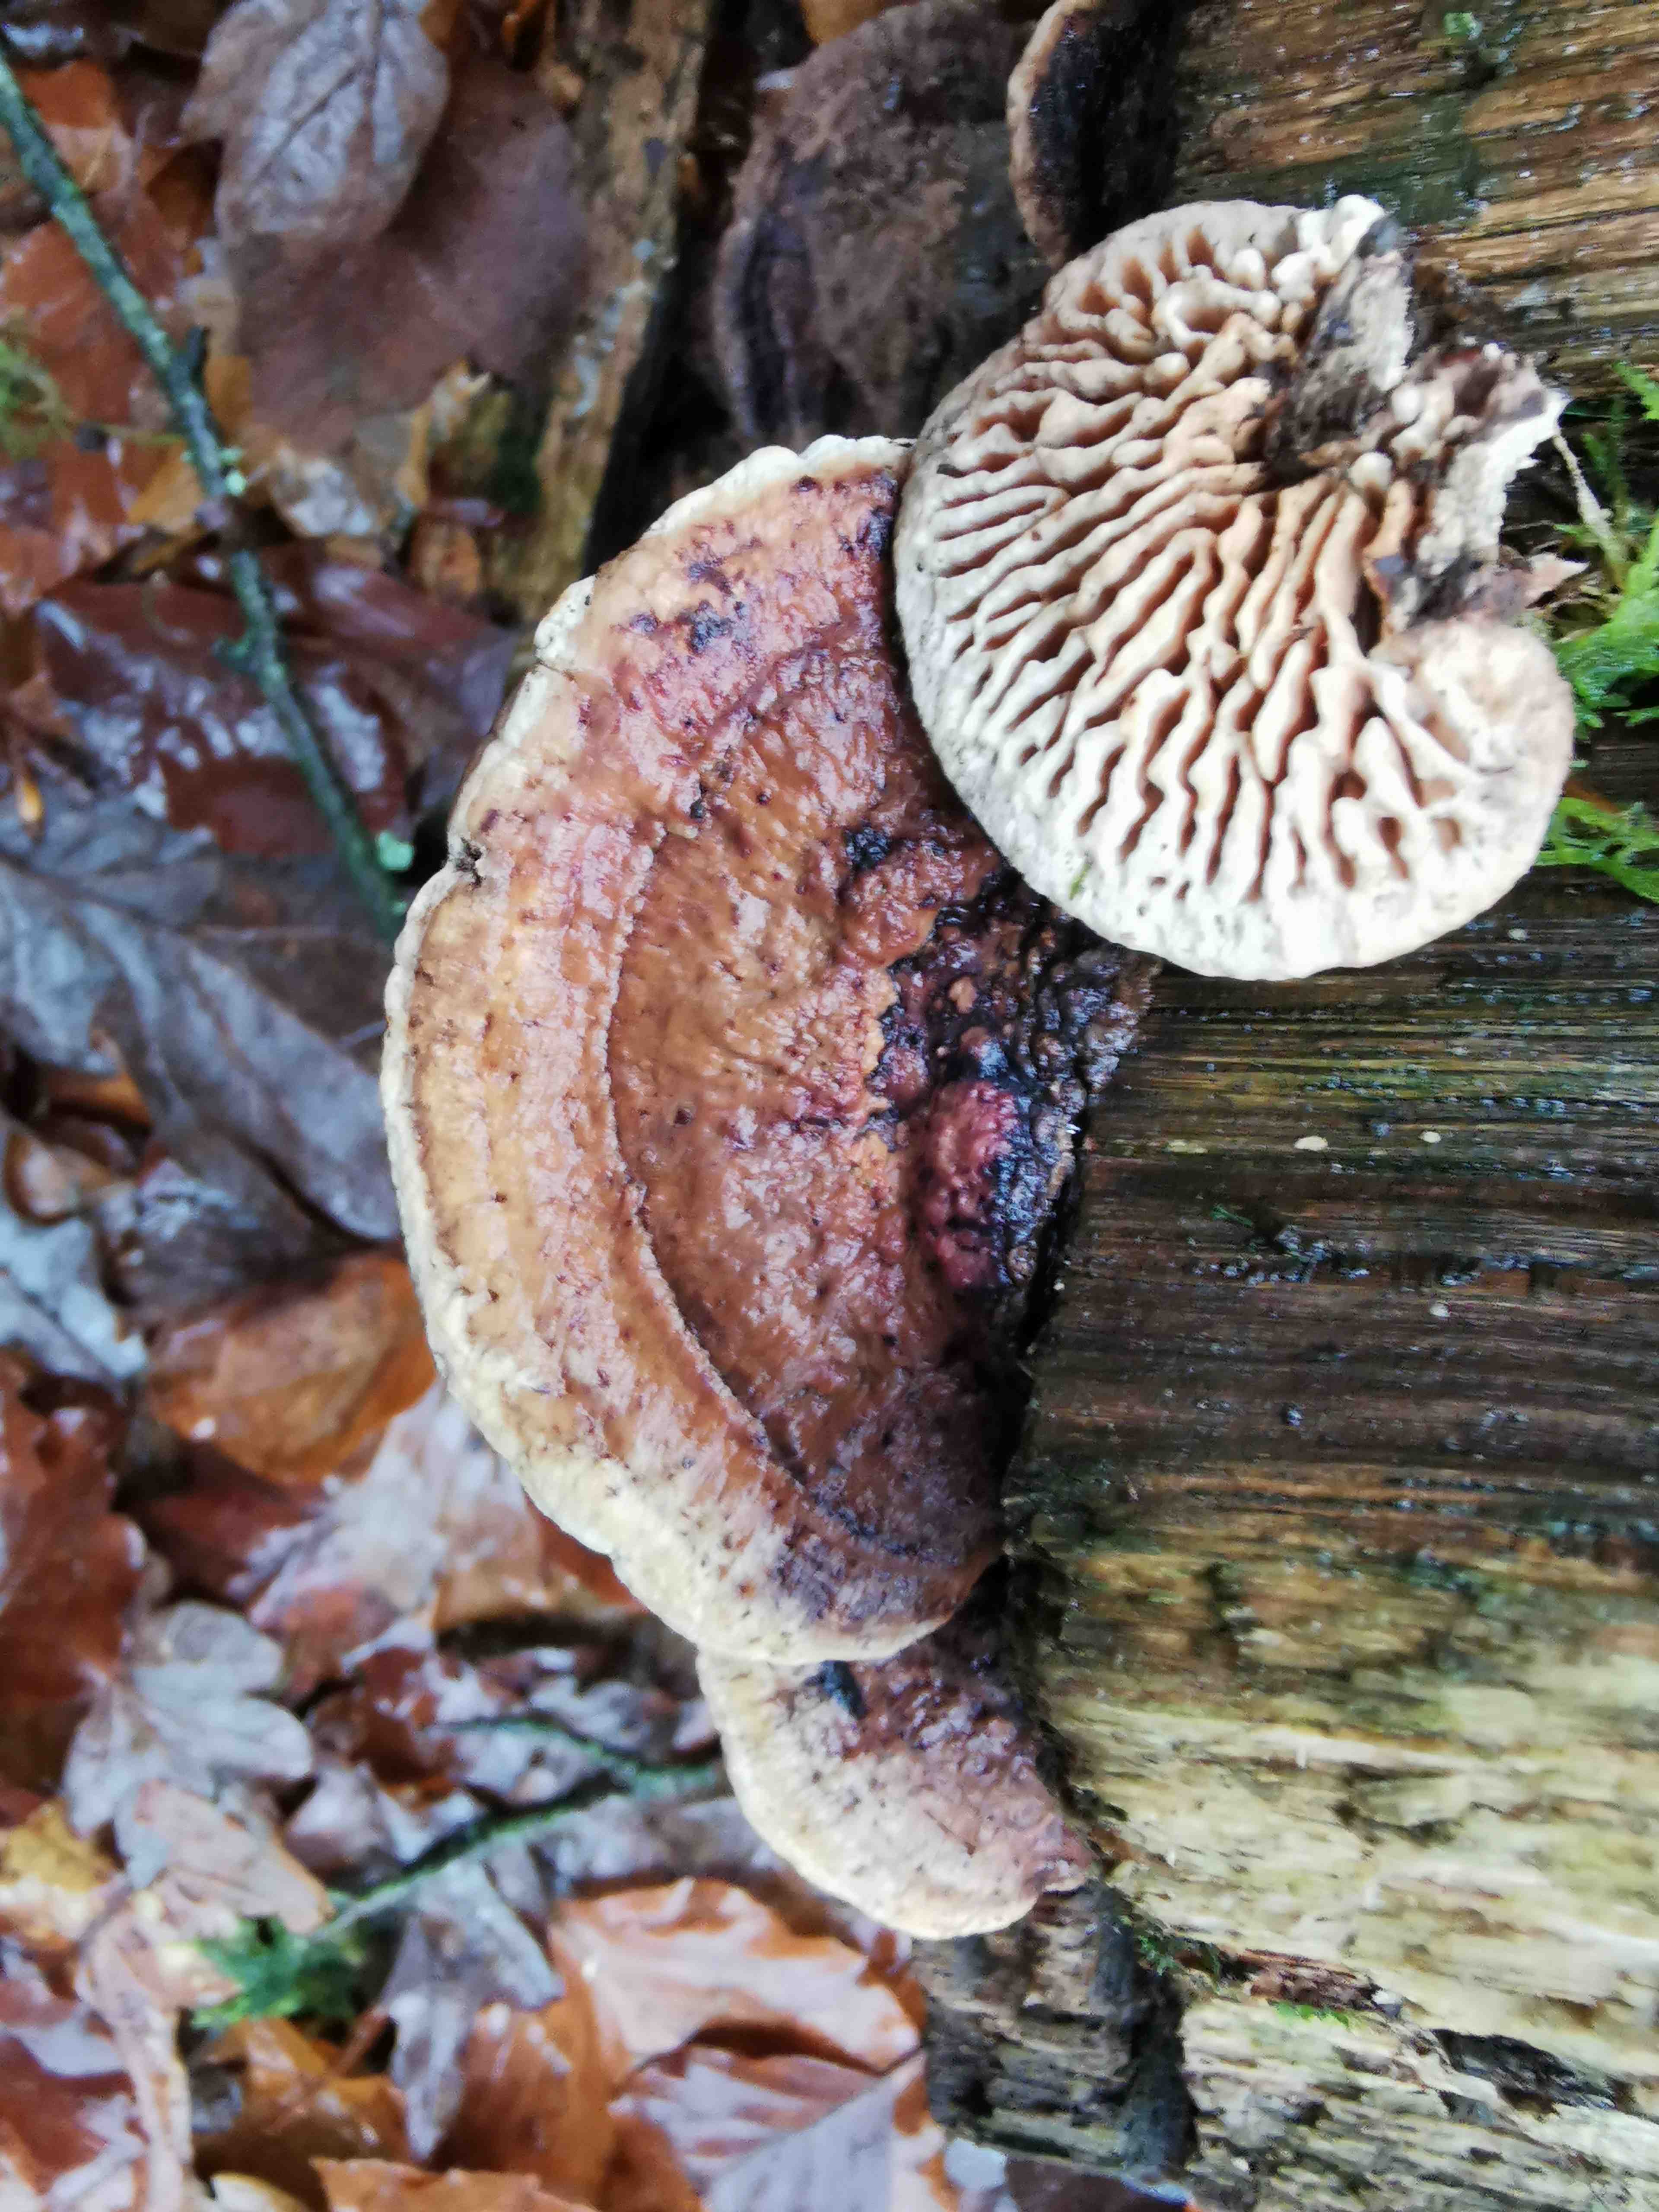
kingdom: Fungi
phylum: Basidiomycota
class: Agaricomycetes
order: Polyporales
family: Fomitopsidaceae
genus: Daedalea
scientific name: Daedalea quercina
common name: ege-labyrintsvamp
